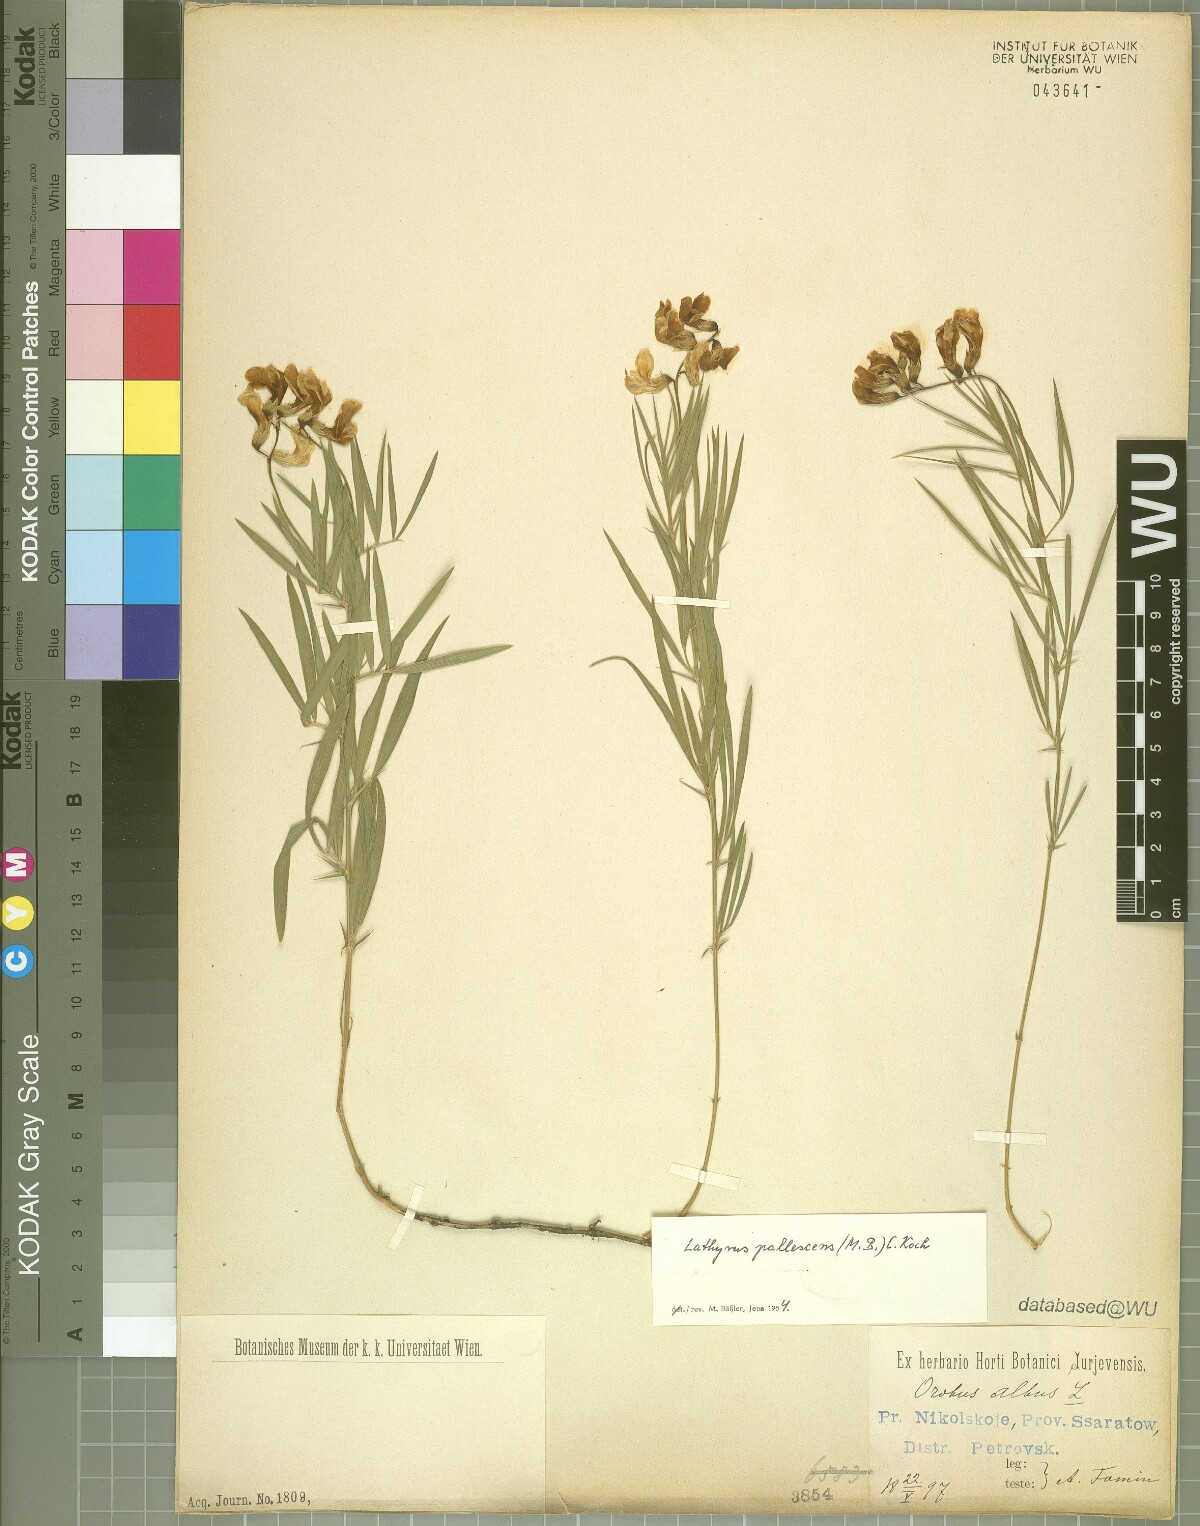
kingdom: Plantae
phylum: Tracheophyta
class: Magnoliopsida
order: Fabales
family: Fabaceae
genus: Lathyrus
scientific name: Lathyrus pallescens
